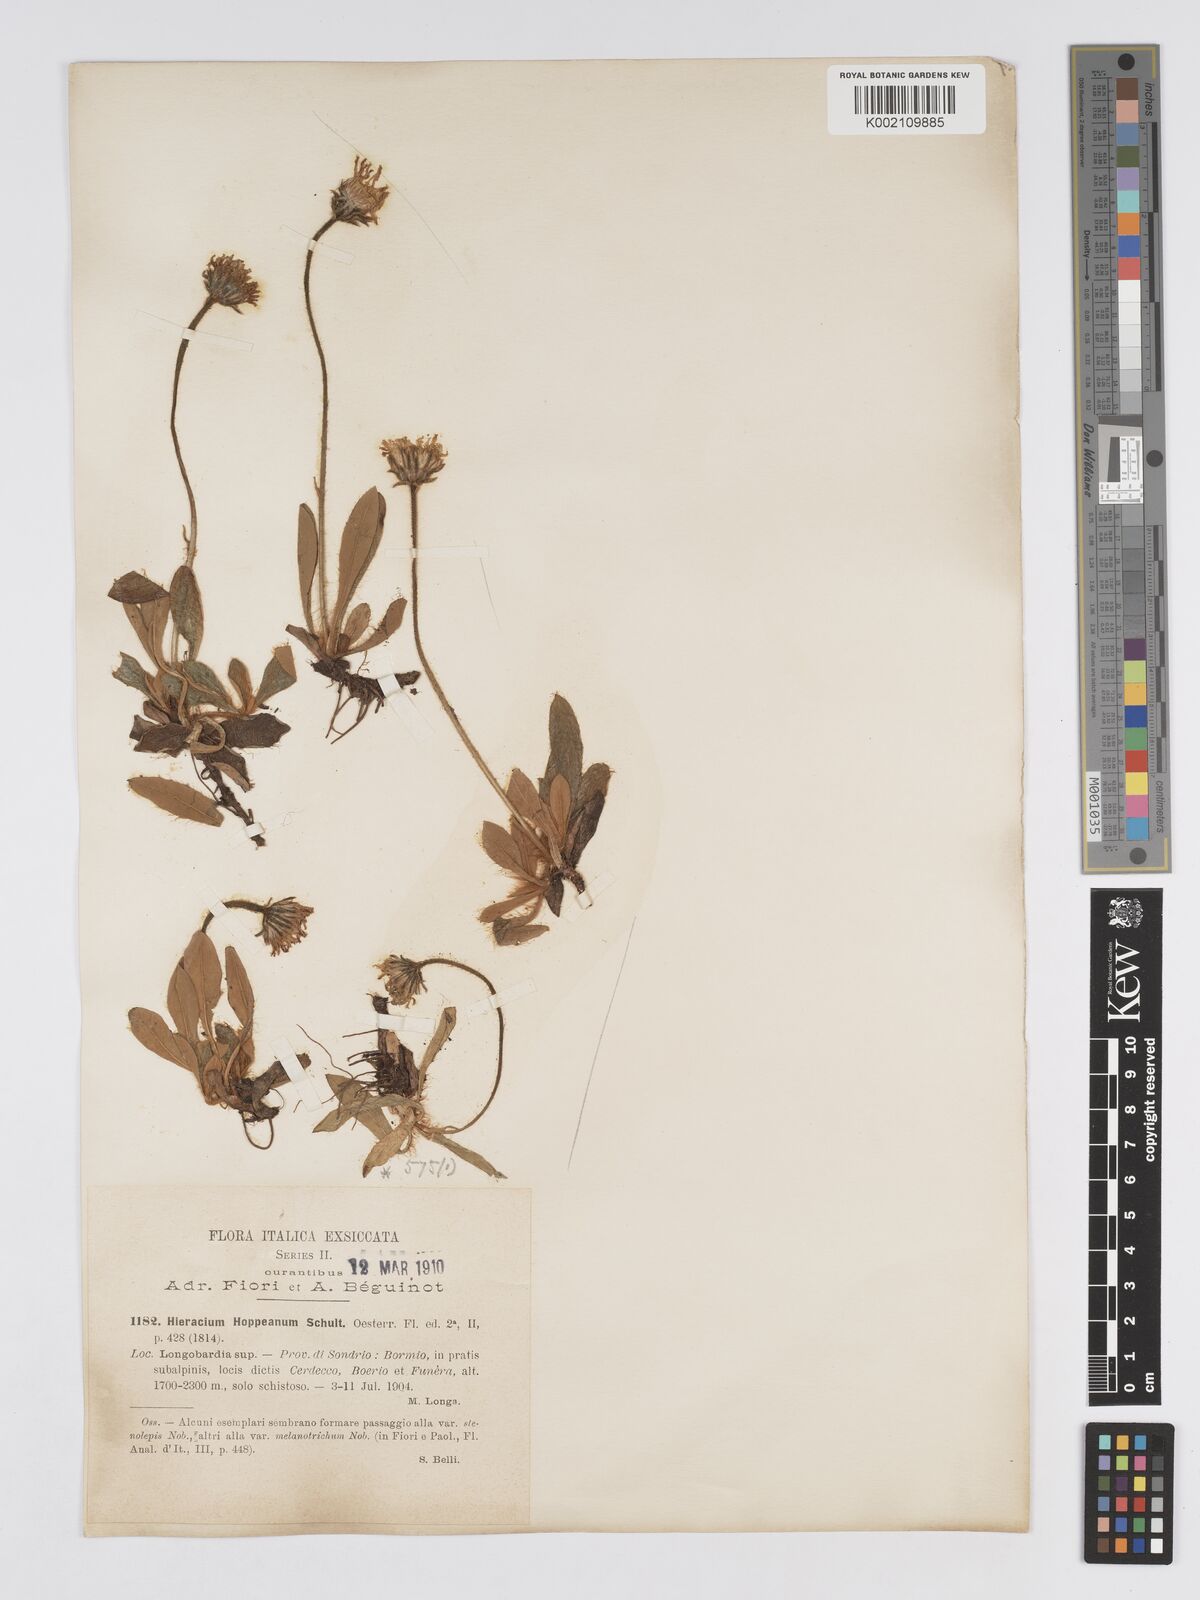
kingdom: Plantae
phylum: Tracheophyta
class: Magnoliopsida
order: Asterales
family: Asteraceae
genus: Pilosella
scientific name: Pilosella hoppeana
